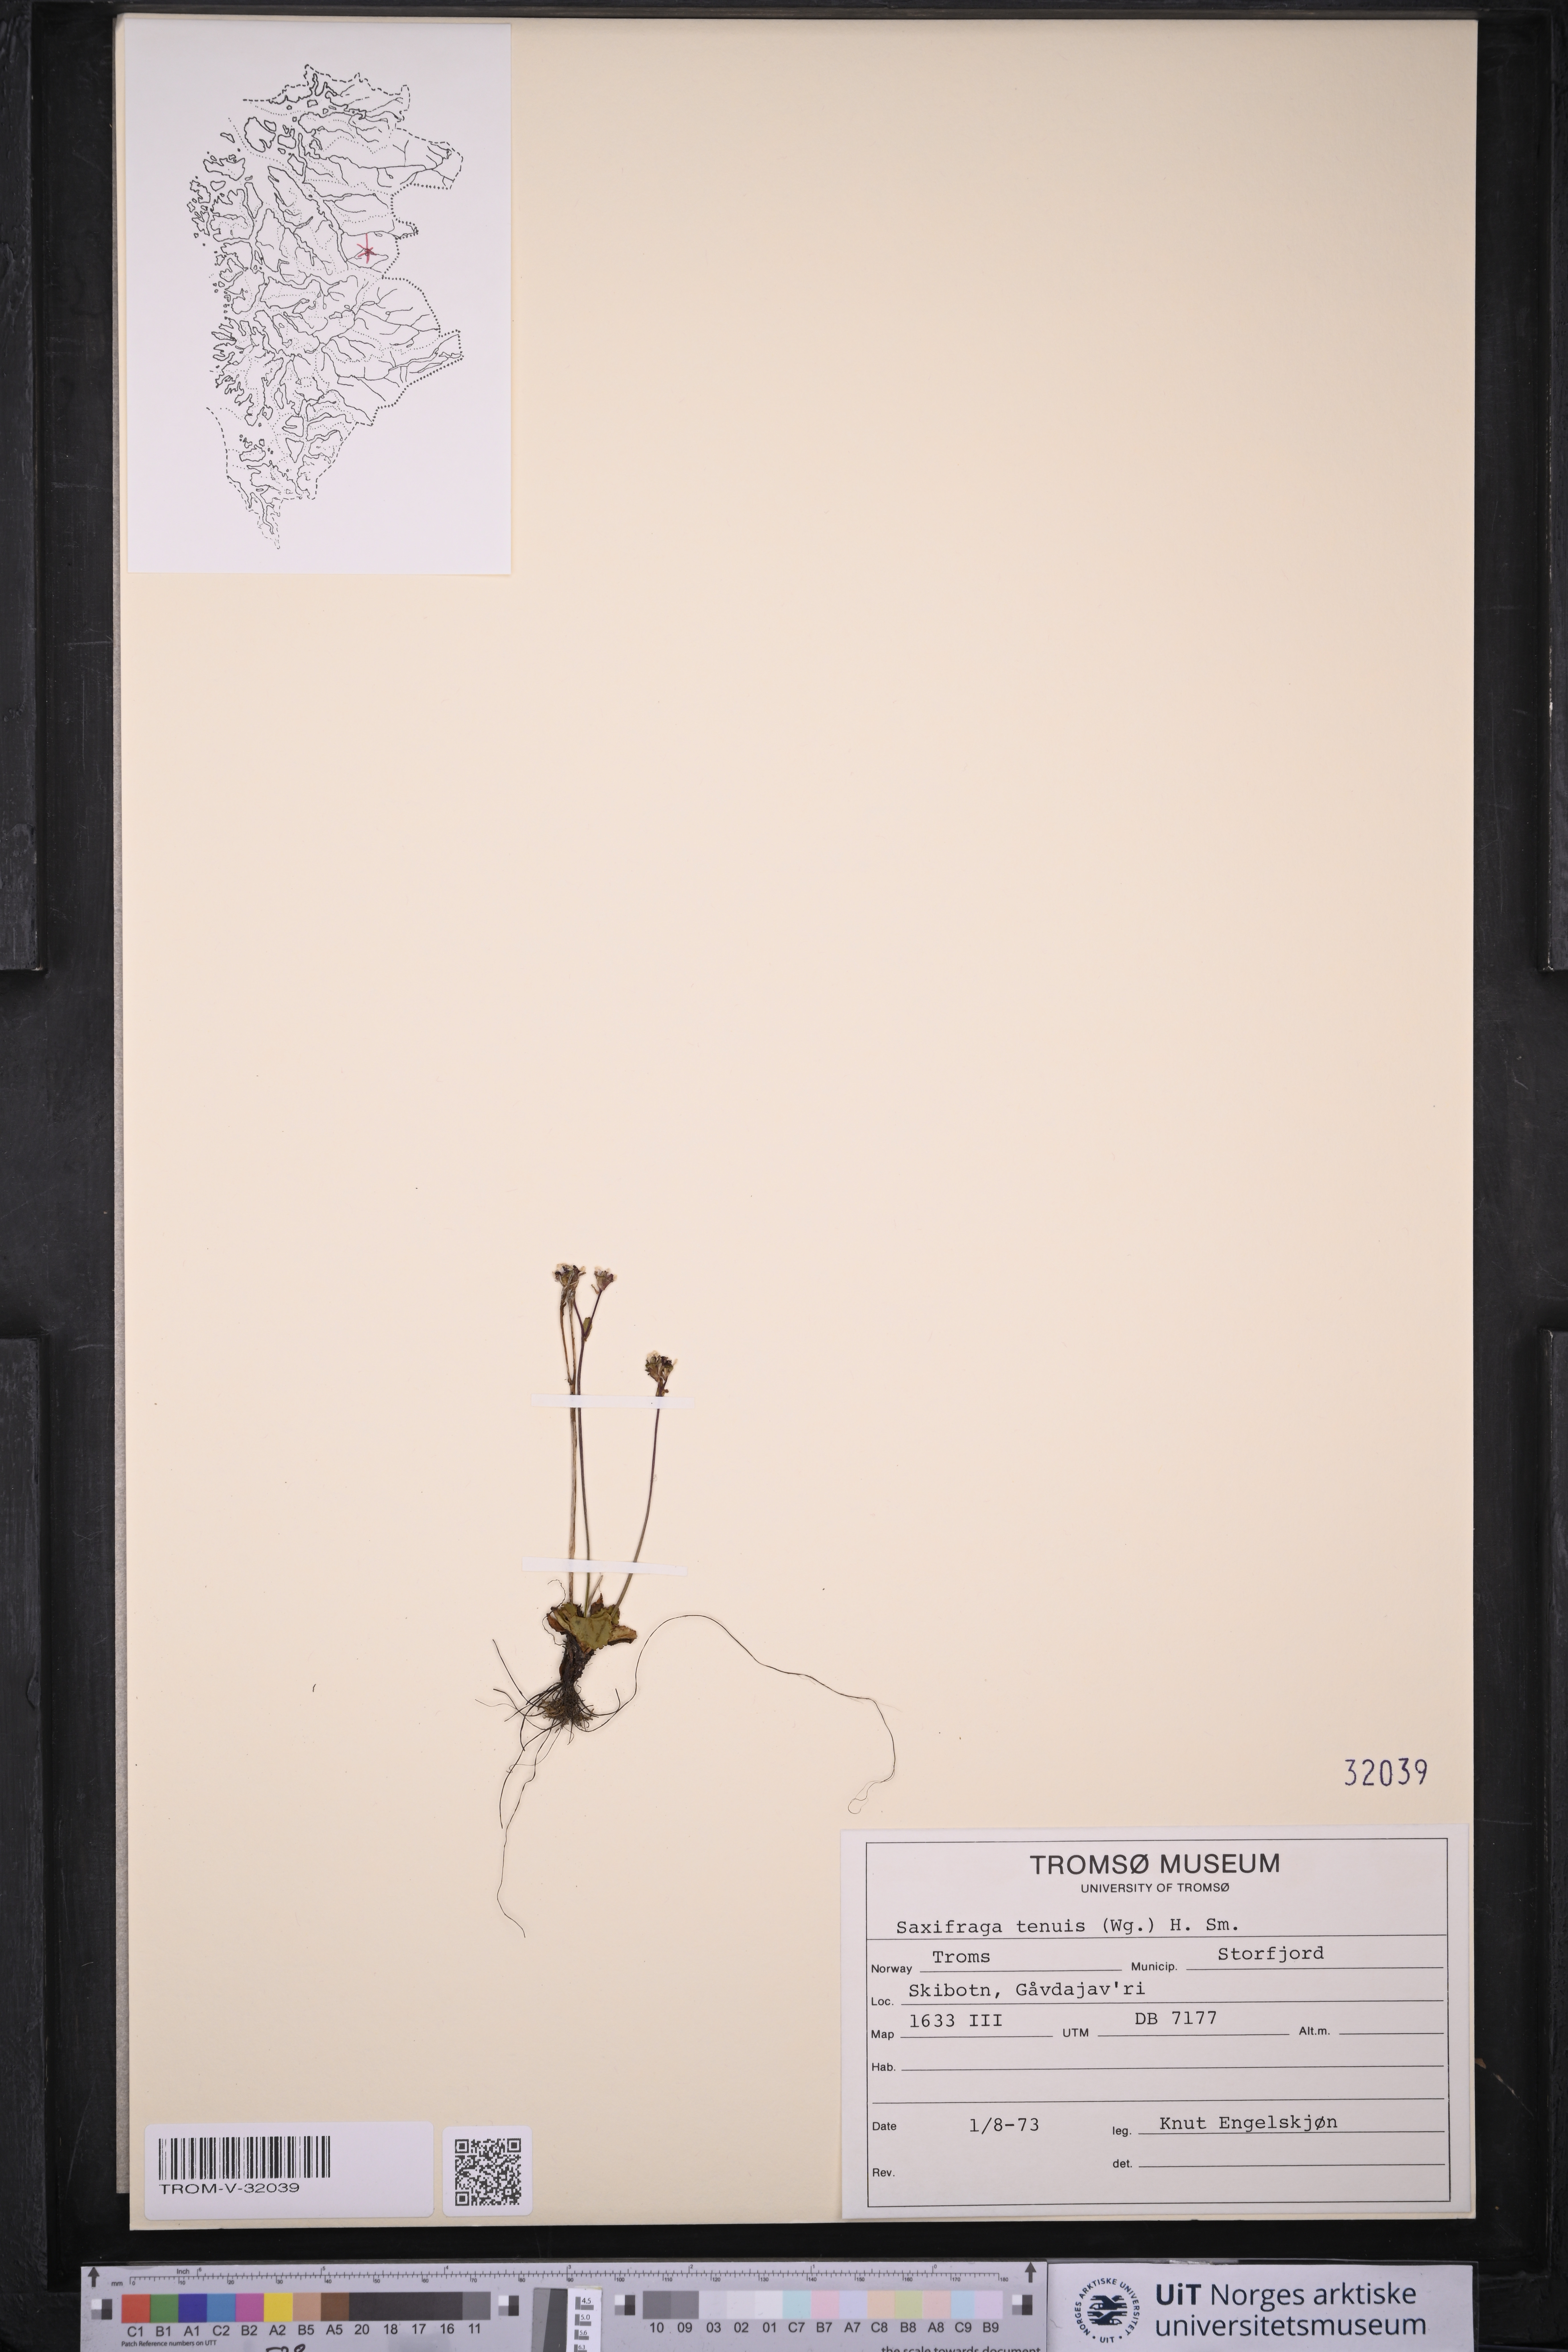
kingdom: Plantae
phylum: Tracheophyta
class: Magnoliopsida
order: Saxifragales
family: Saxifragaceae
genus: Micranthes
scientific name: Micranthes tenuis
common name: Ottertail pass saxifrage
